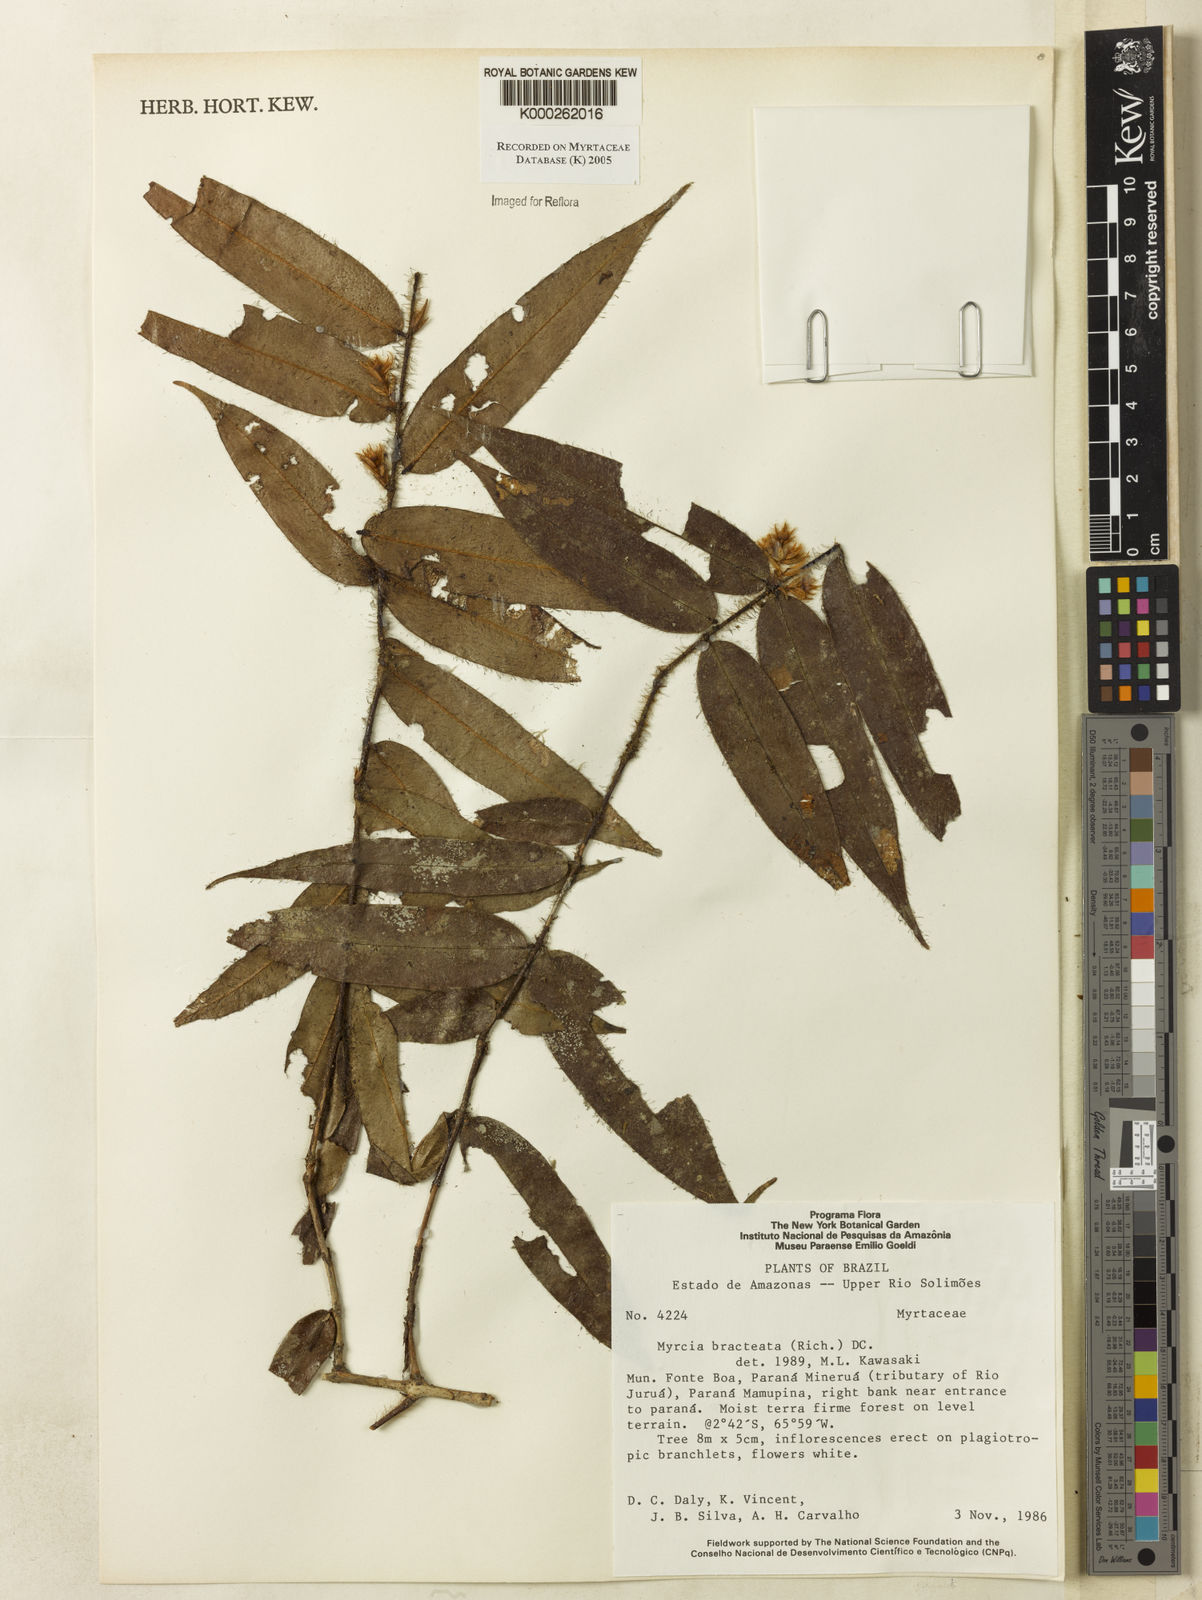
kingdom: Plantae
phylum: Tracheophyta
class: Magnoliopsida
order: Myrtales
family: Myrtaceae
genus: Myrcia
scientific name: Myrcia bracteata
